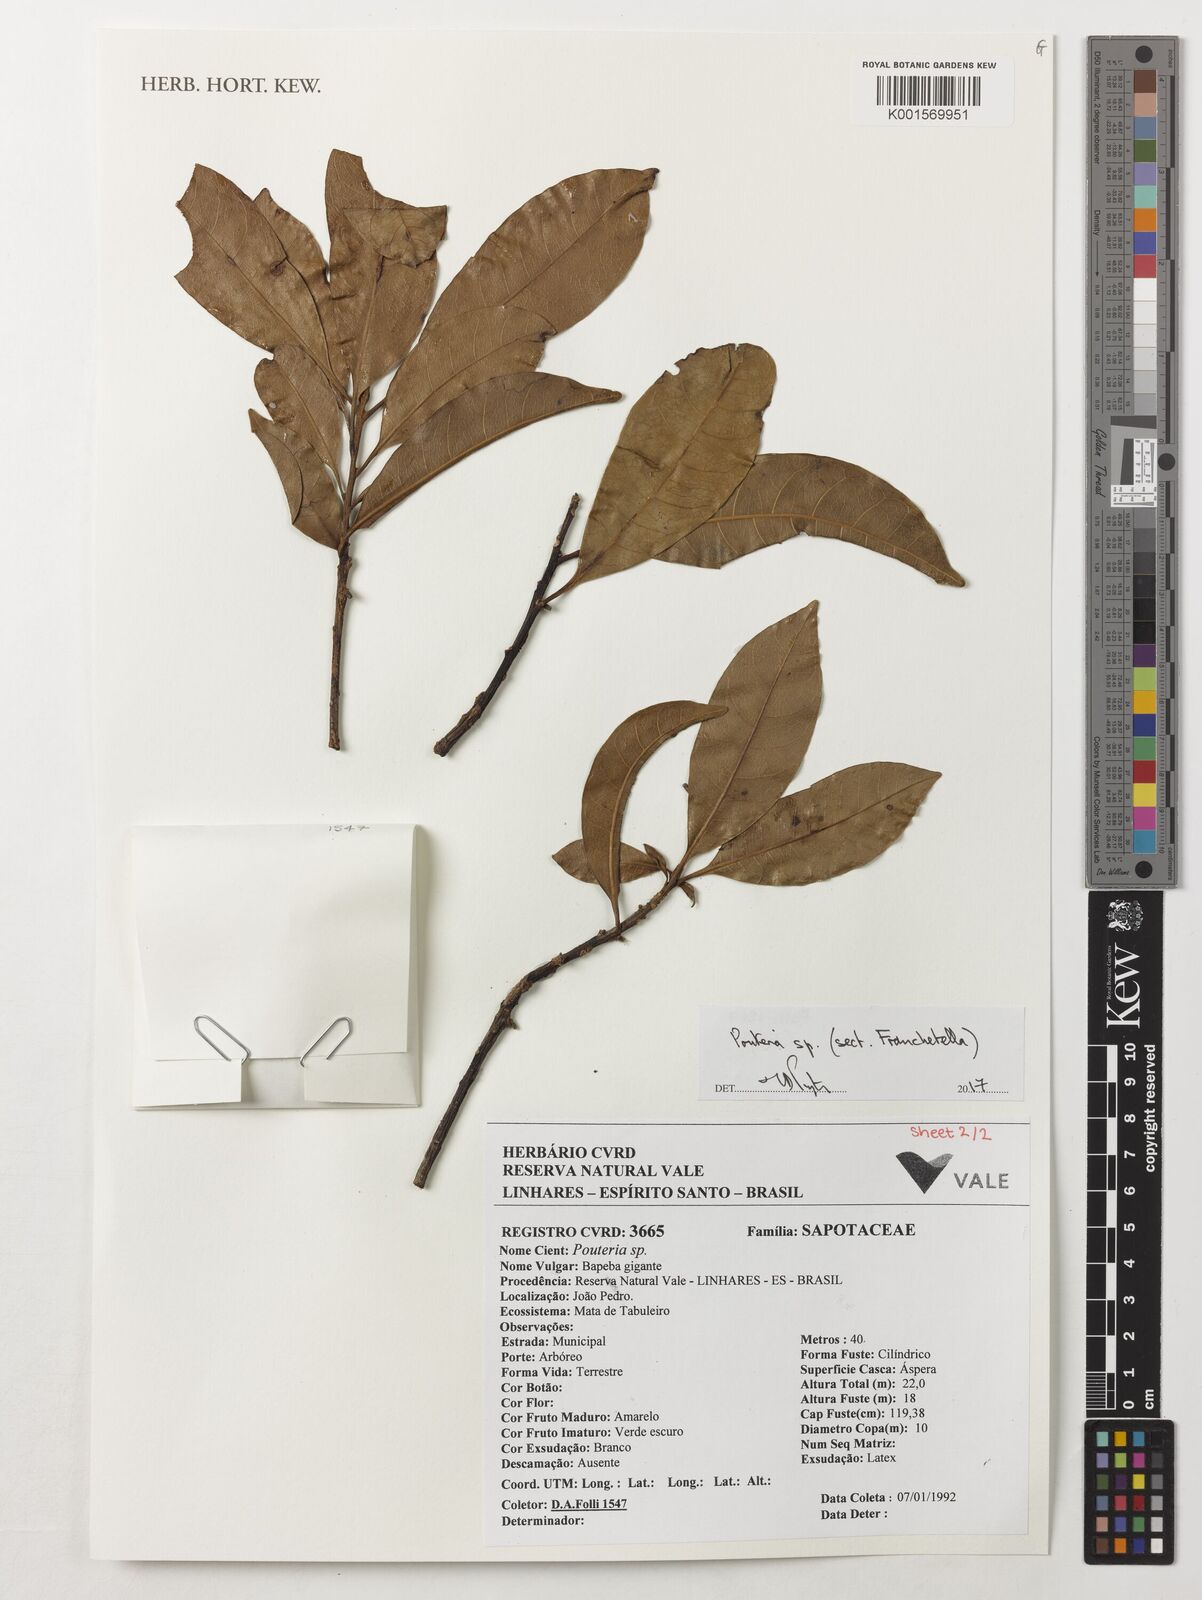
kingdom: Plantae
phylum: Tracheophyta
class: Magnoliopsida
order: Ericales
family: Sapotaceae
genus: Pouteria
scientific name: Pouteria
